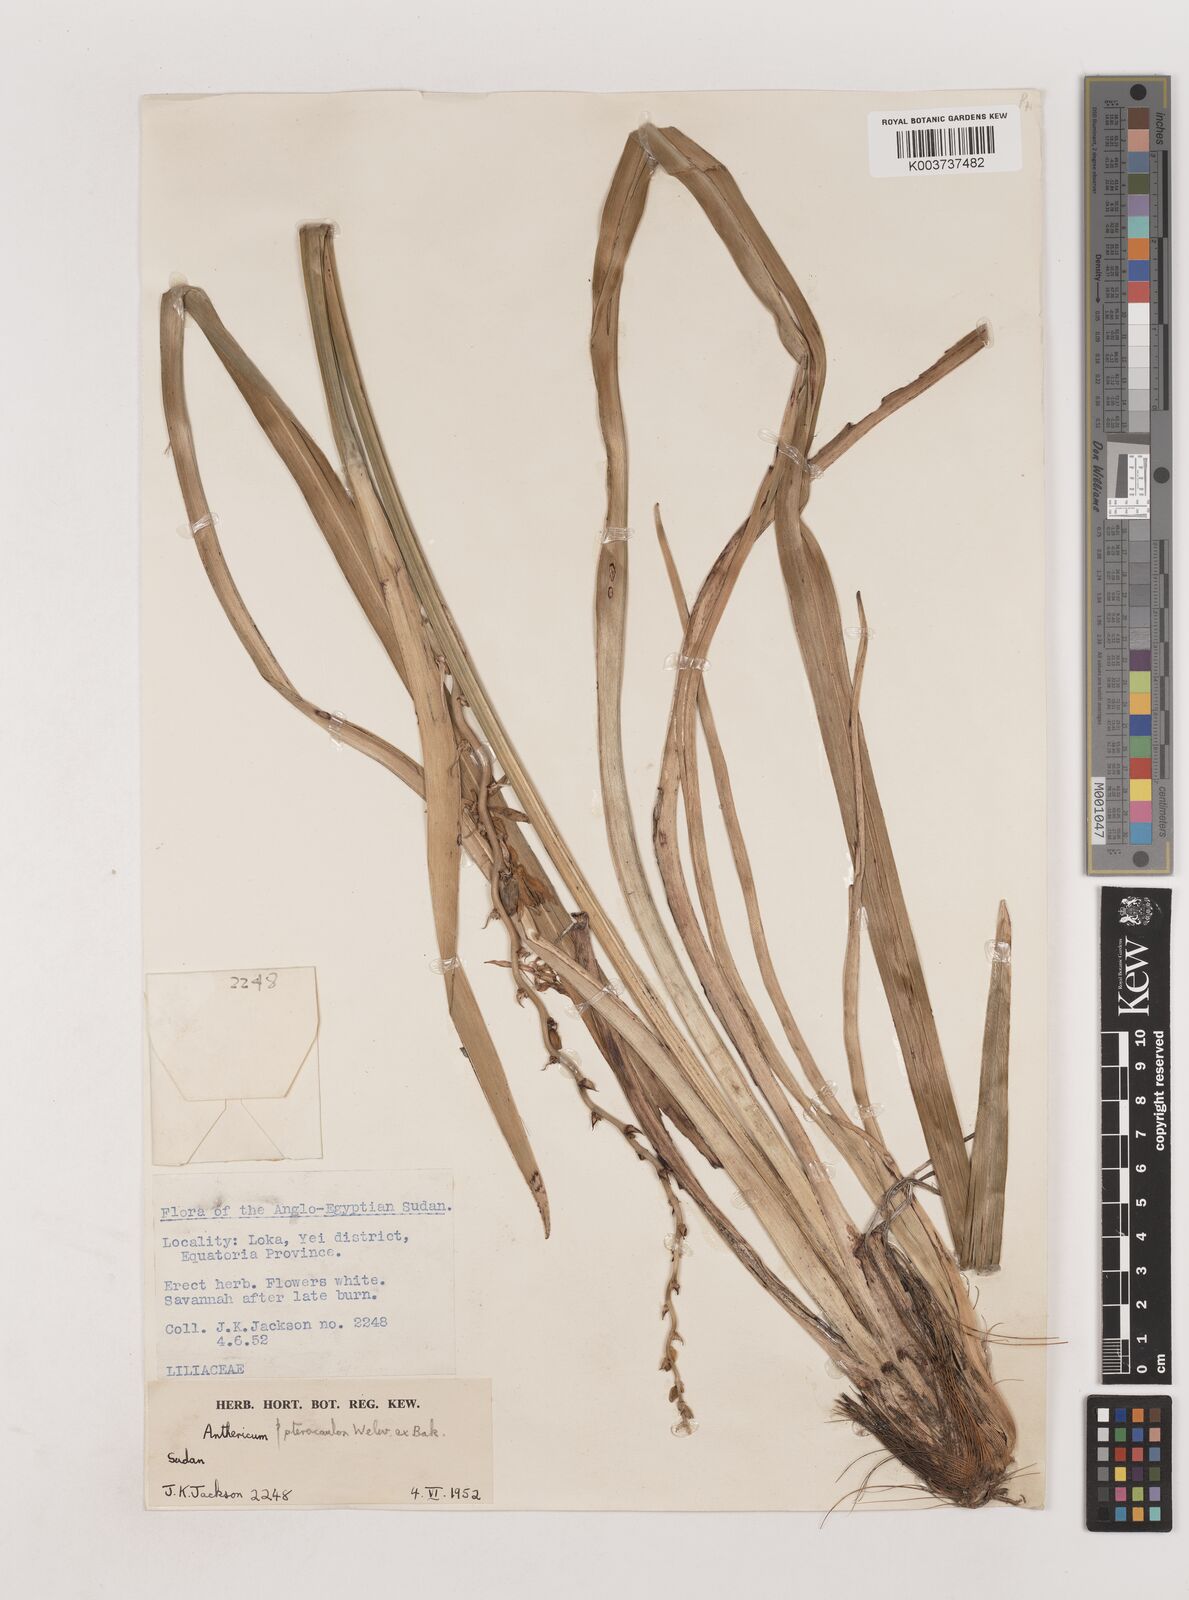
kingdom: Plantae
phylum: Tracheophyta
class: Liliopsida
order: Asparagales
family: Asparagaceae
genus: Chlorophytum
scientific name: Chlorophytum cameronii
